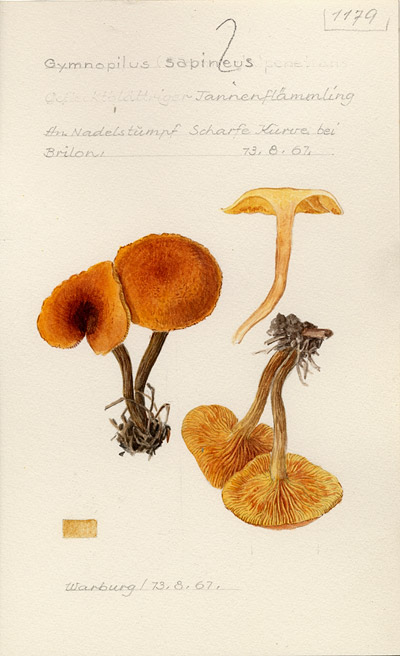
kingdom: Fungi
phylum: Basidiomycota
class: Agaricomycetes
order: Agaricales
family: Hymenogastraceae
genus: Gymnopilus
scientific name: Gymnopilus sapineus
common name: Scaly rustgill
